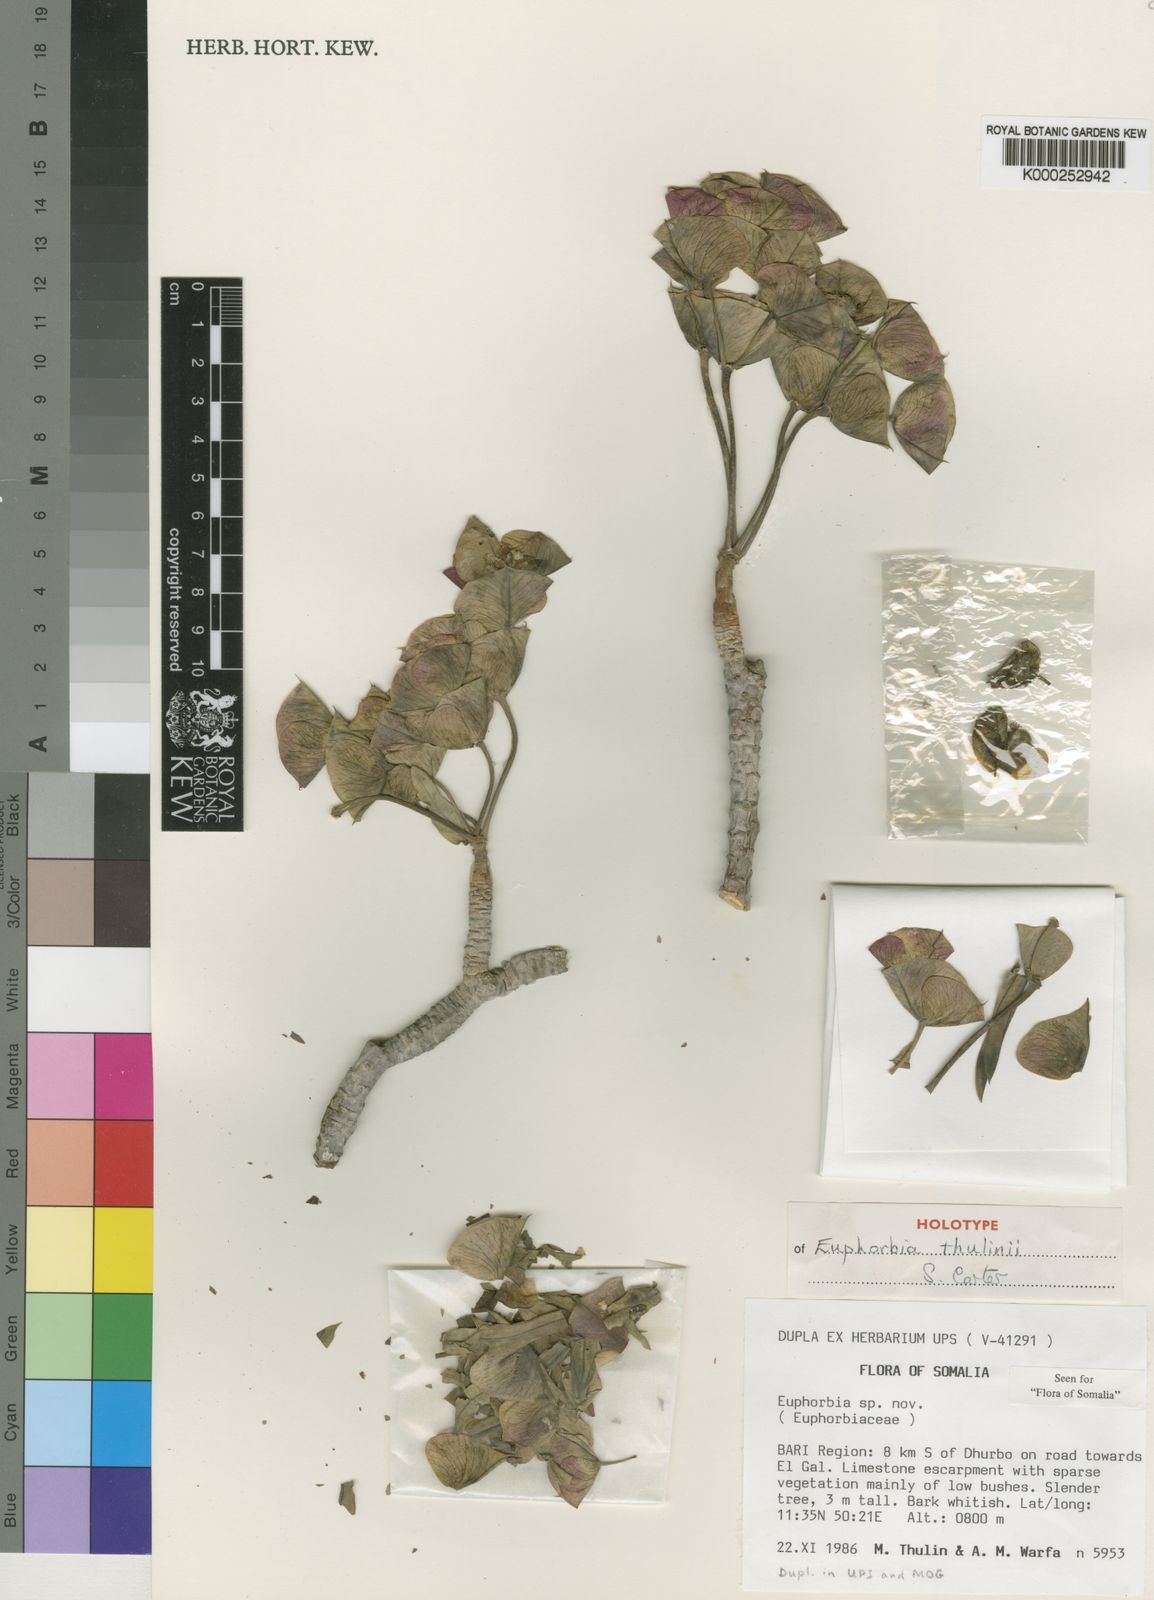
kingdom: Plantae
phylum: Tracheophyta
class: Magnoliopsida
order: Malpighiales
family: Euphorbiaceae
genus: Euphorbia
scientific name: Euphorbia thulinii
